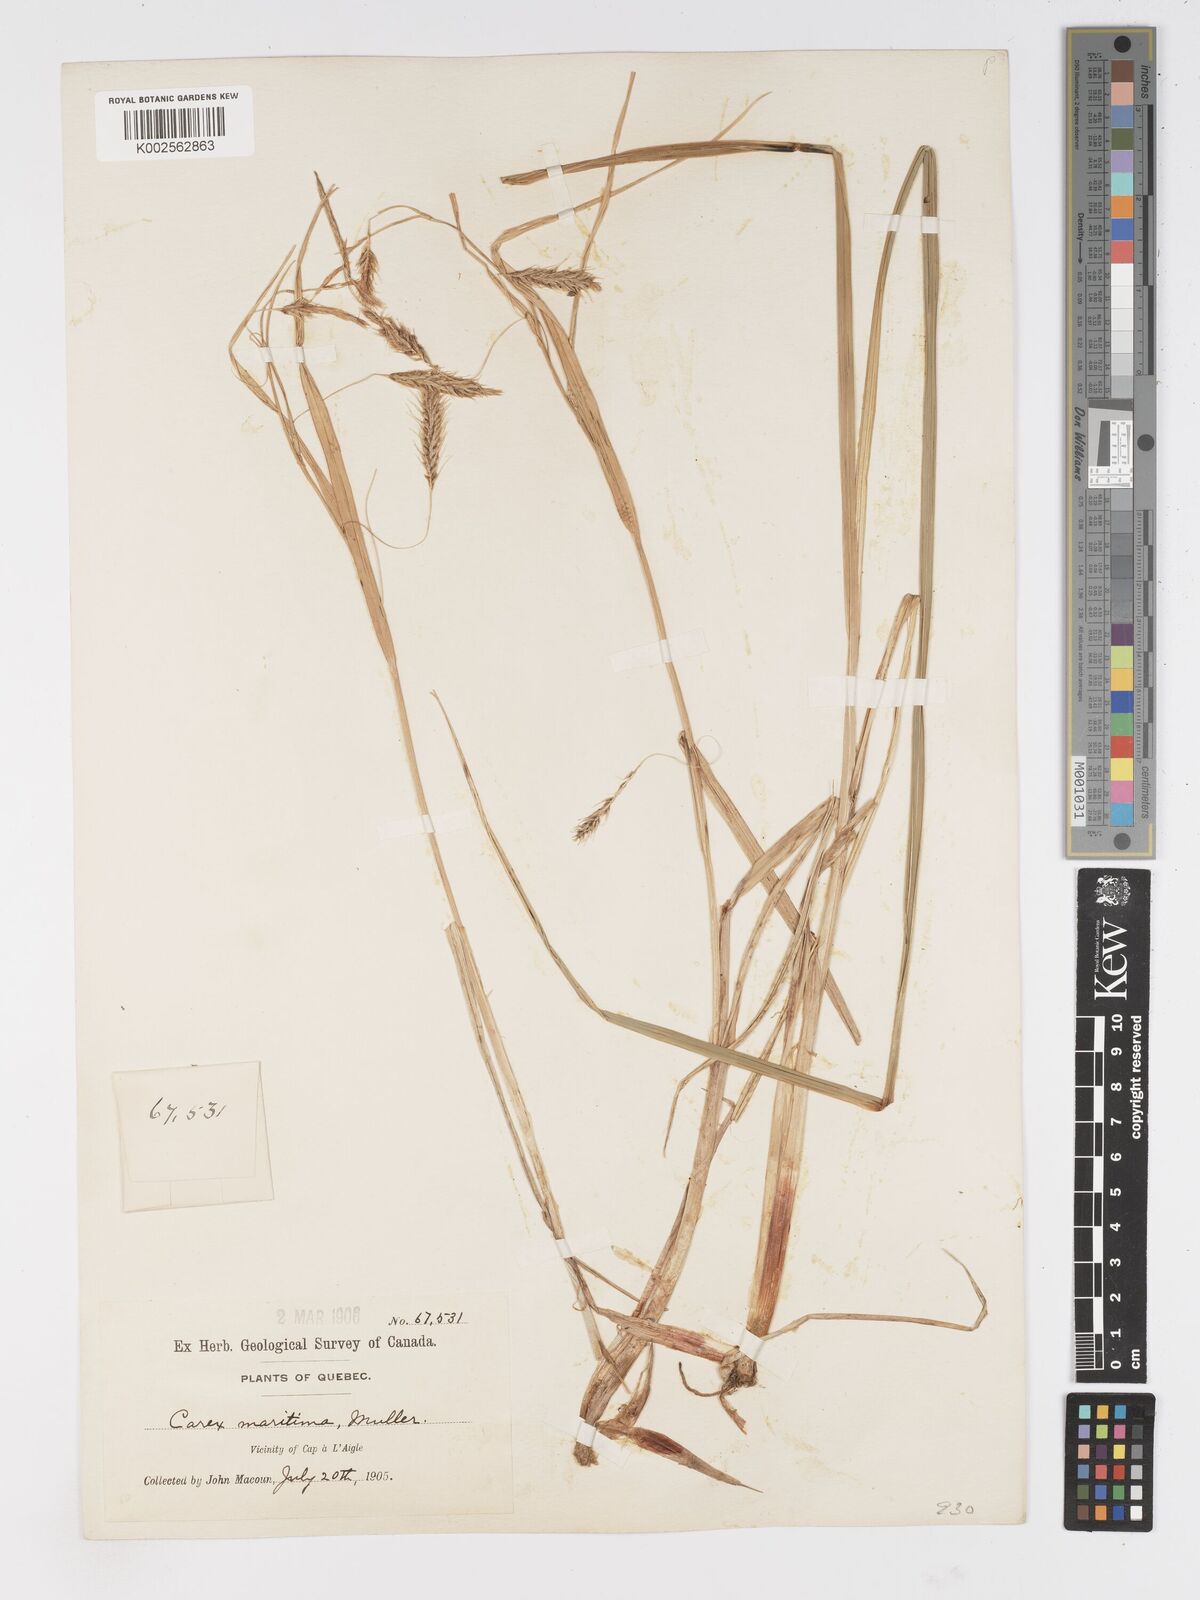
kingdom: Plantae
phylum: Tracheophyta
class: Liliopsida
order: Poales
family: Cyperaceae
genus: Carex
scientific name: Carex paleacea
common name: Chaffy sedge
